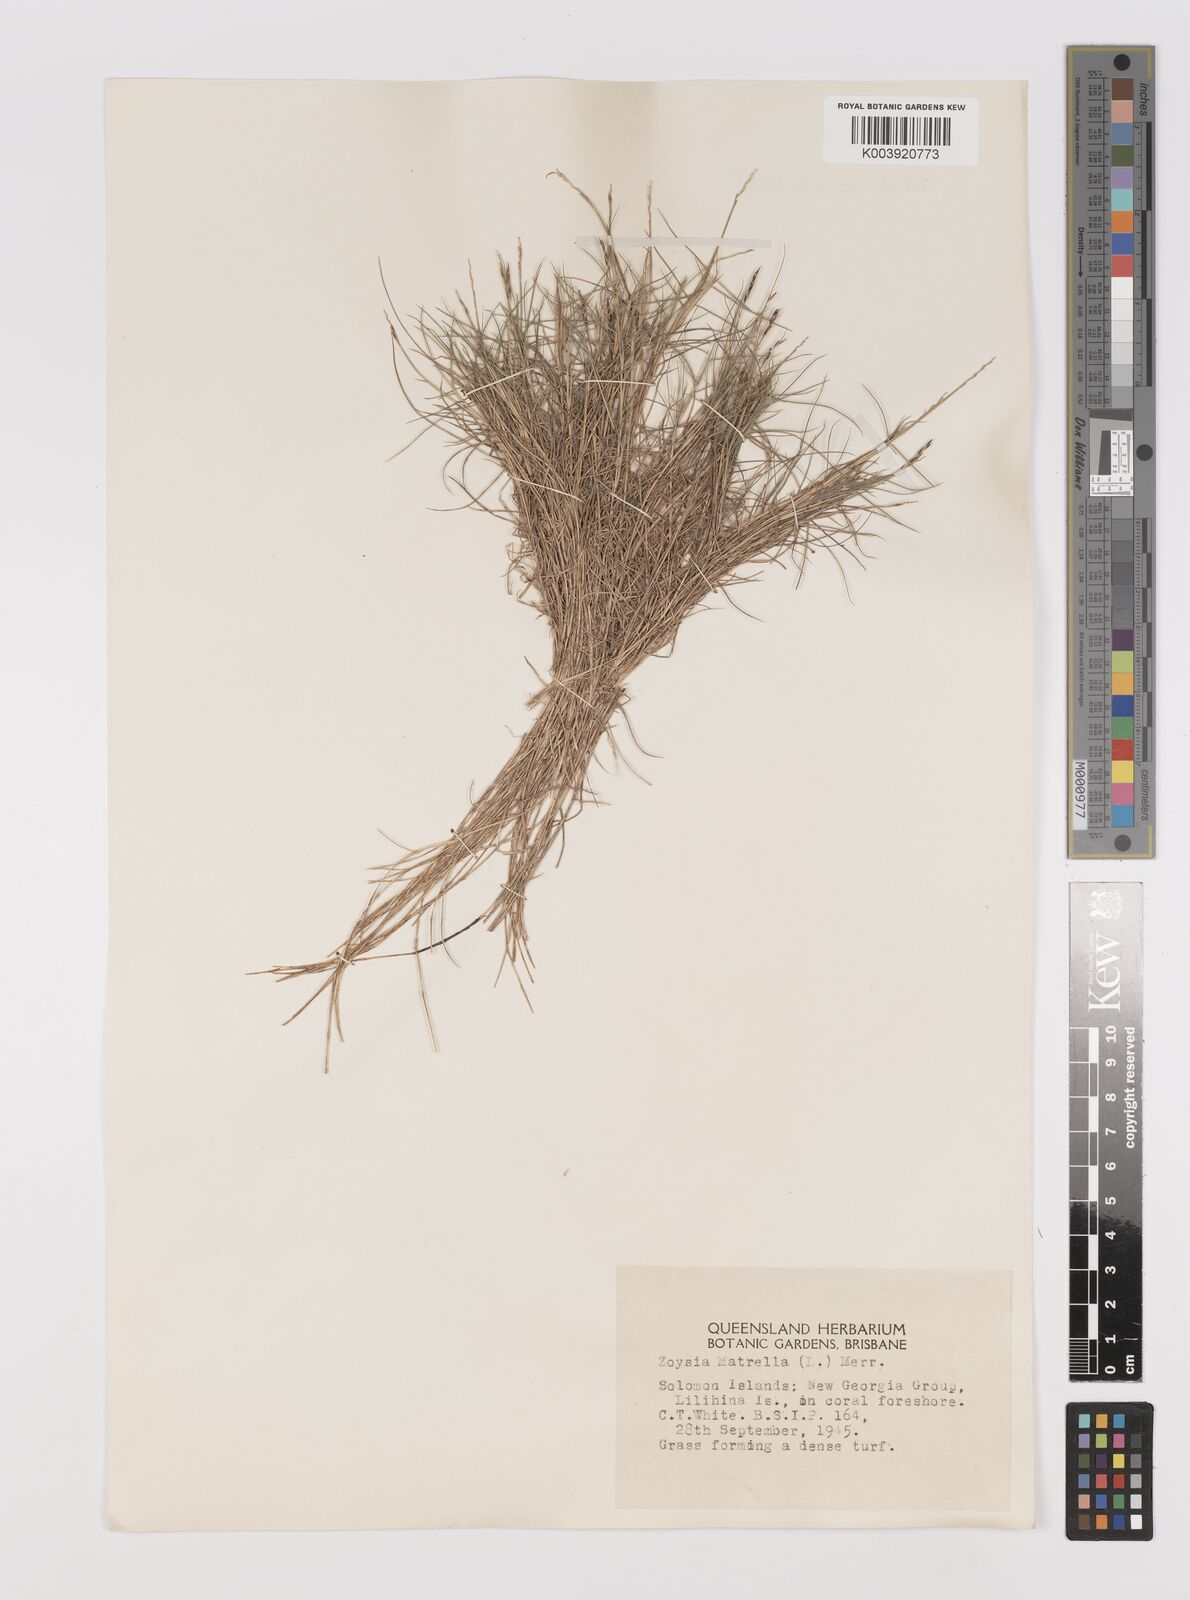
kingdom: Plantae
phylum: Tracheophyta
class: Liliopsida
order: Poales
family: Poaceae
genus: Zoysia
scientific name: Zoysia matrella
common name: Manila grass
